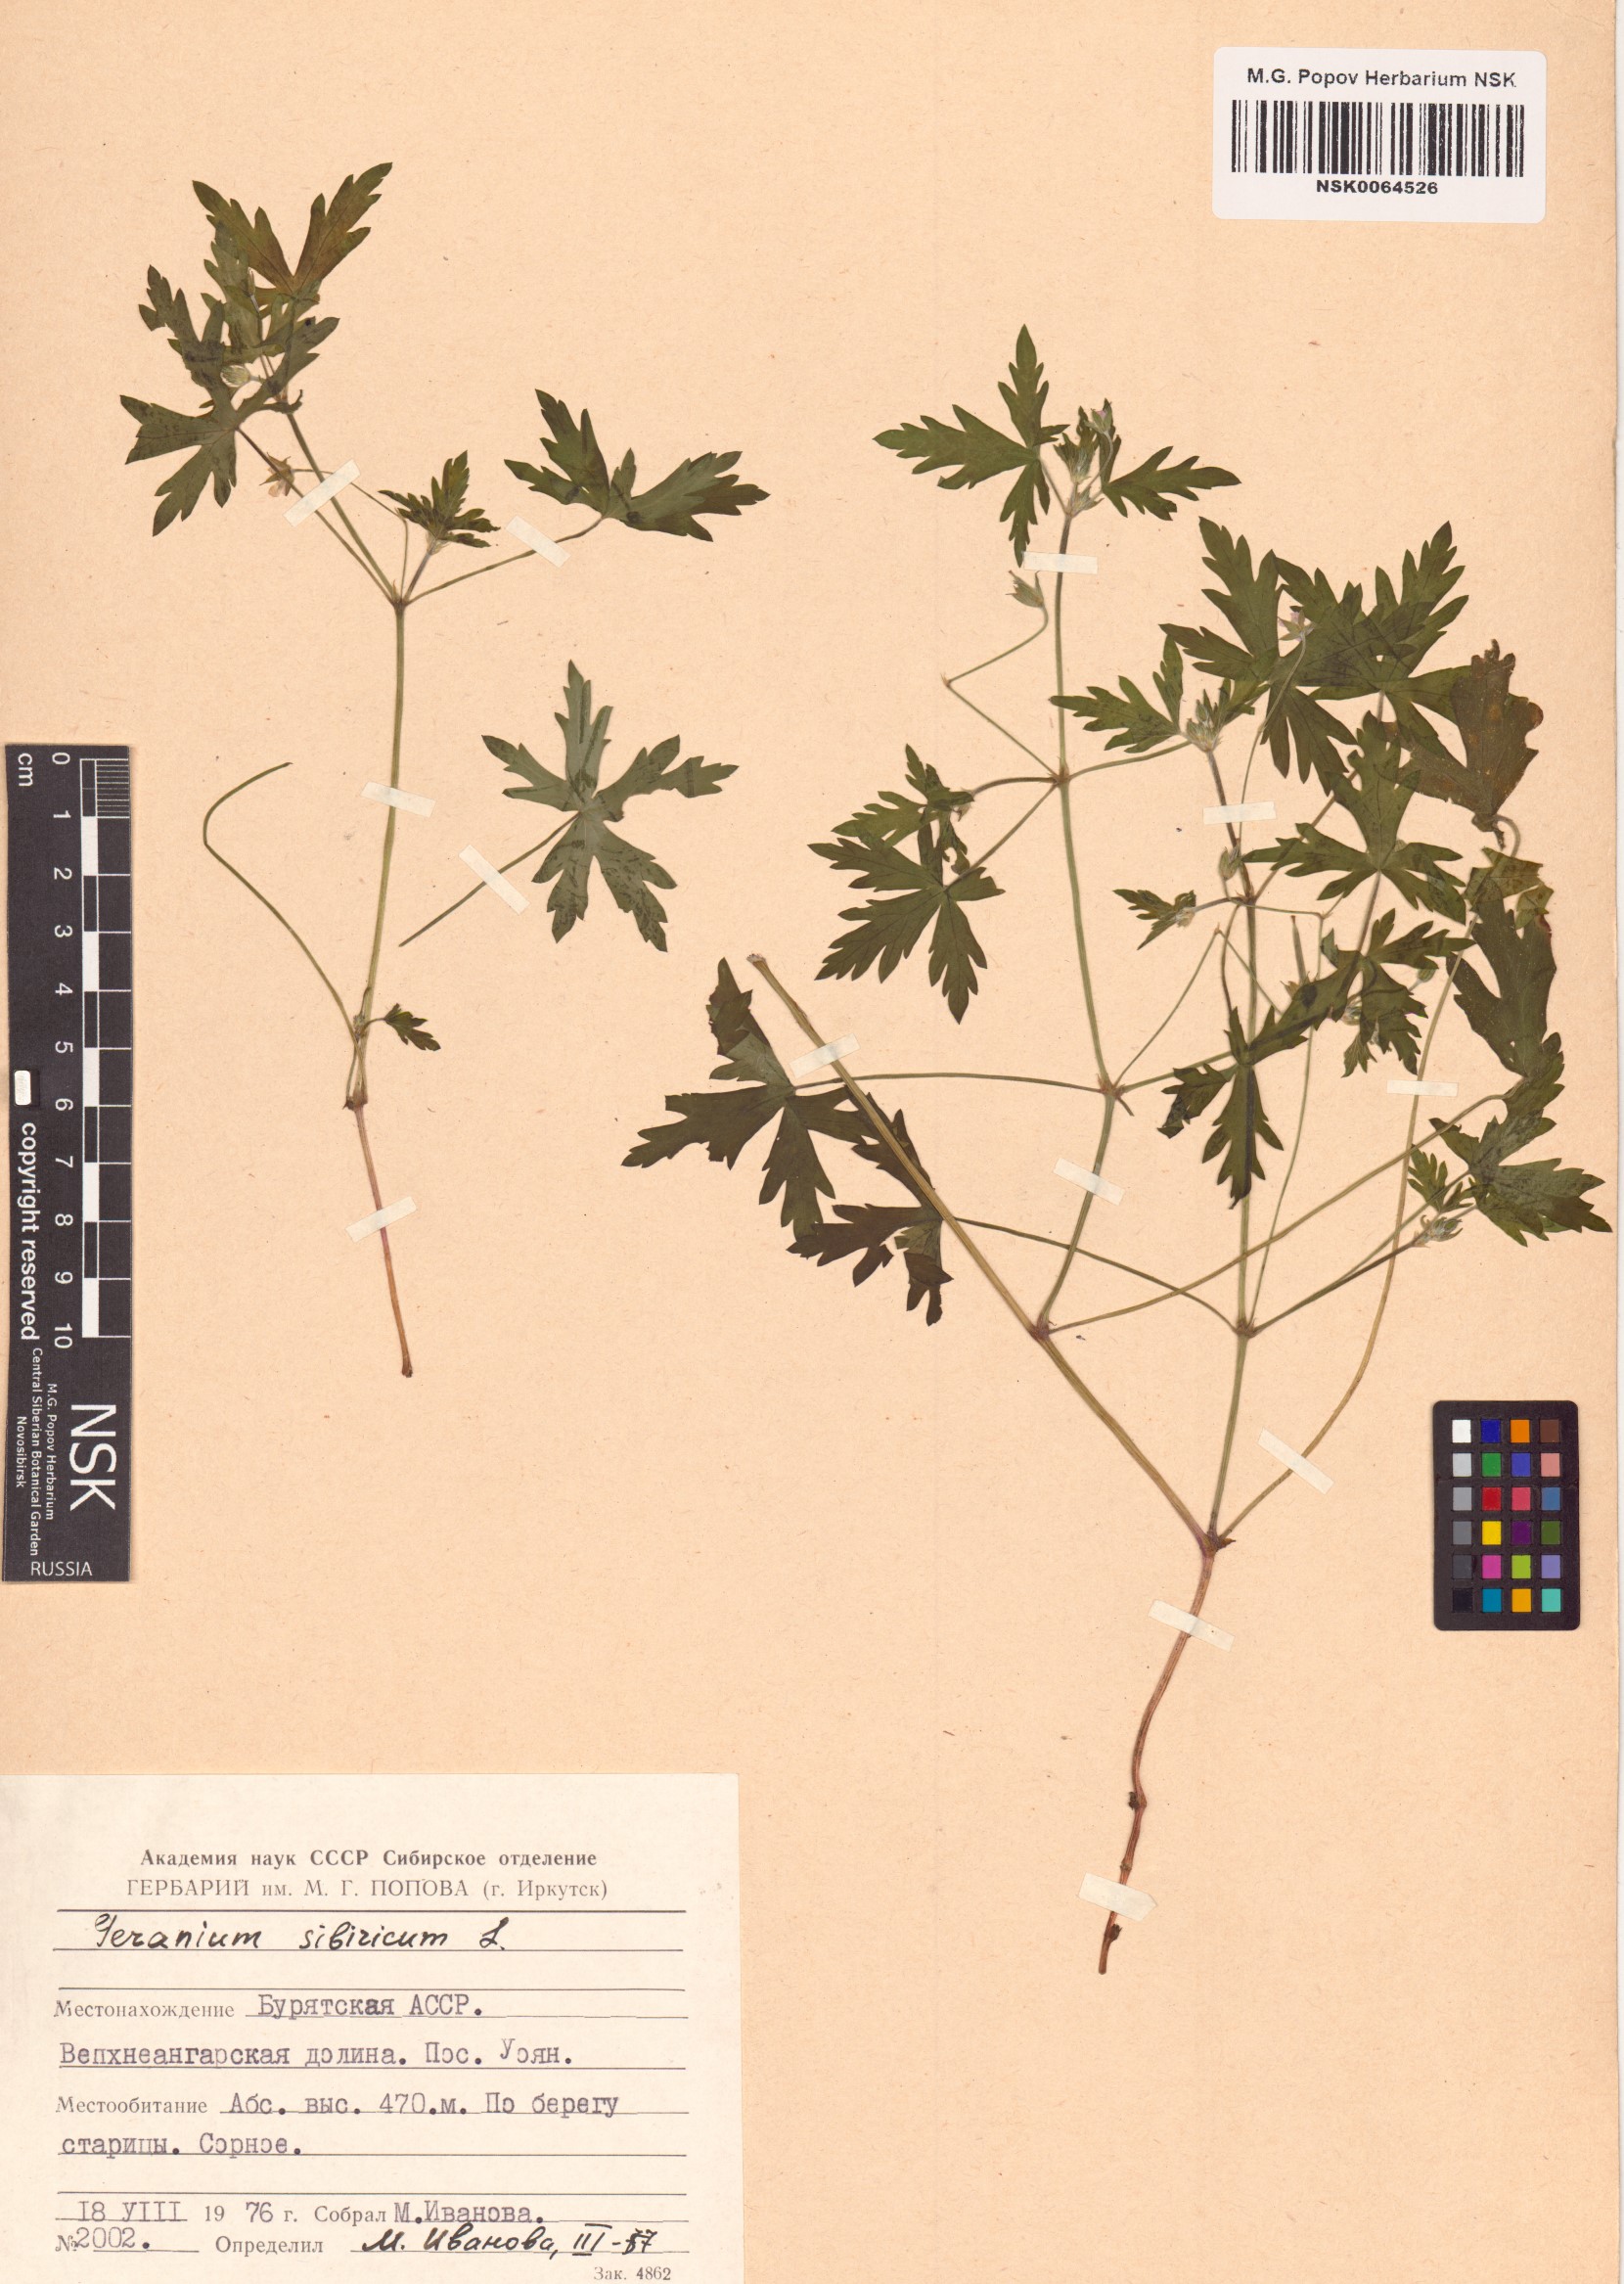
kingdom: Plantae
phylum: Tracheophyta
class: Magnoliopsida
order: Geraniales
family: Geraniaceae
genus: Geranium
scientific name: Geranium sibiricum
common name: Siberian crane's-bill
